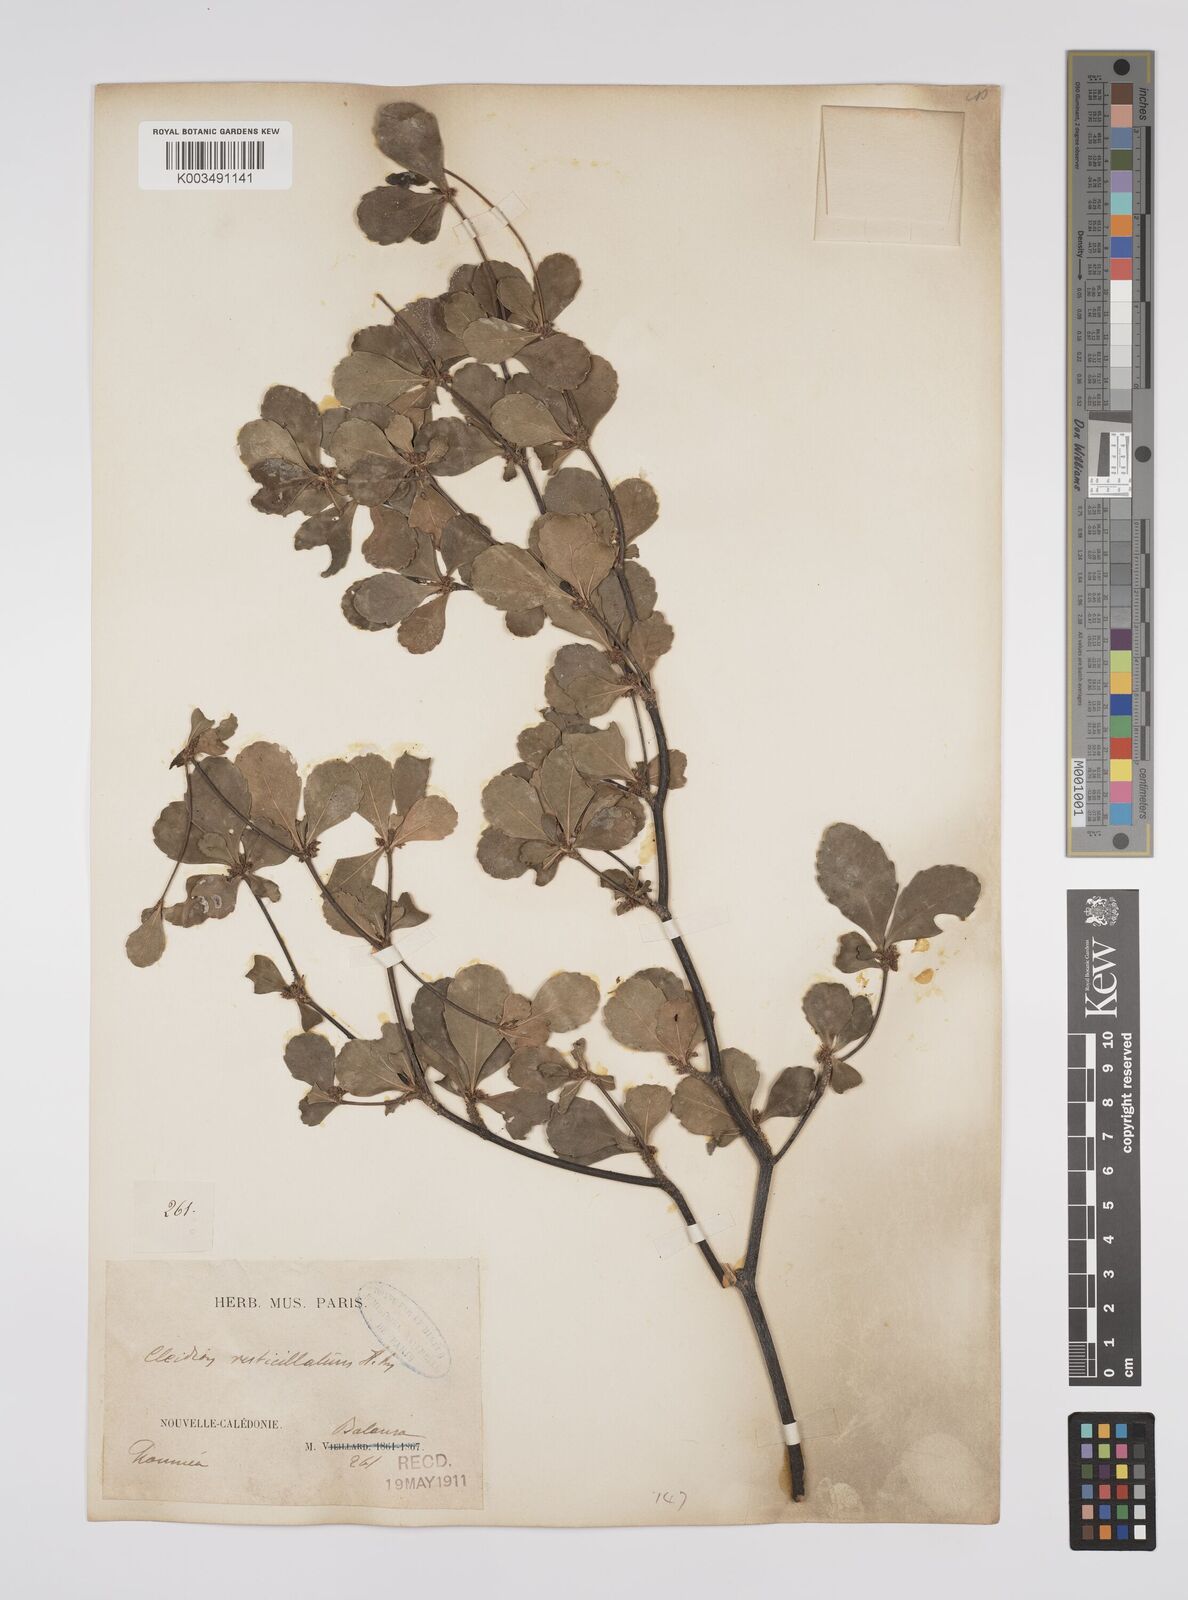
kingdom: Plantae
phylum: Tracheophyta
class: Magnoliopsida
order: Malpighiales
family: Euphorbiaceae
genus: Cleidion
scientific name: Cleidion verticillatum
